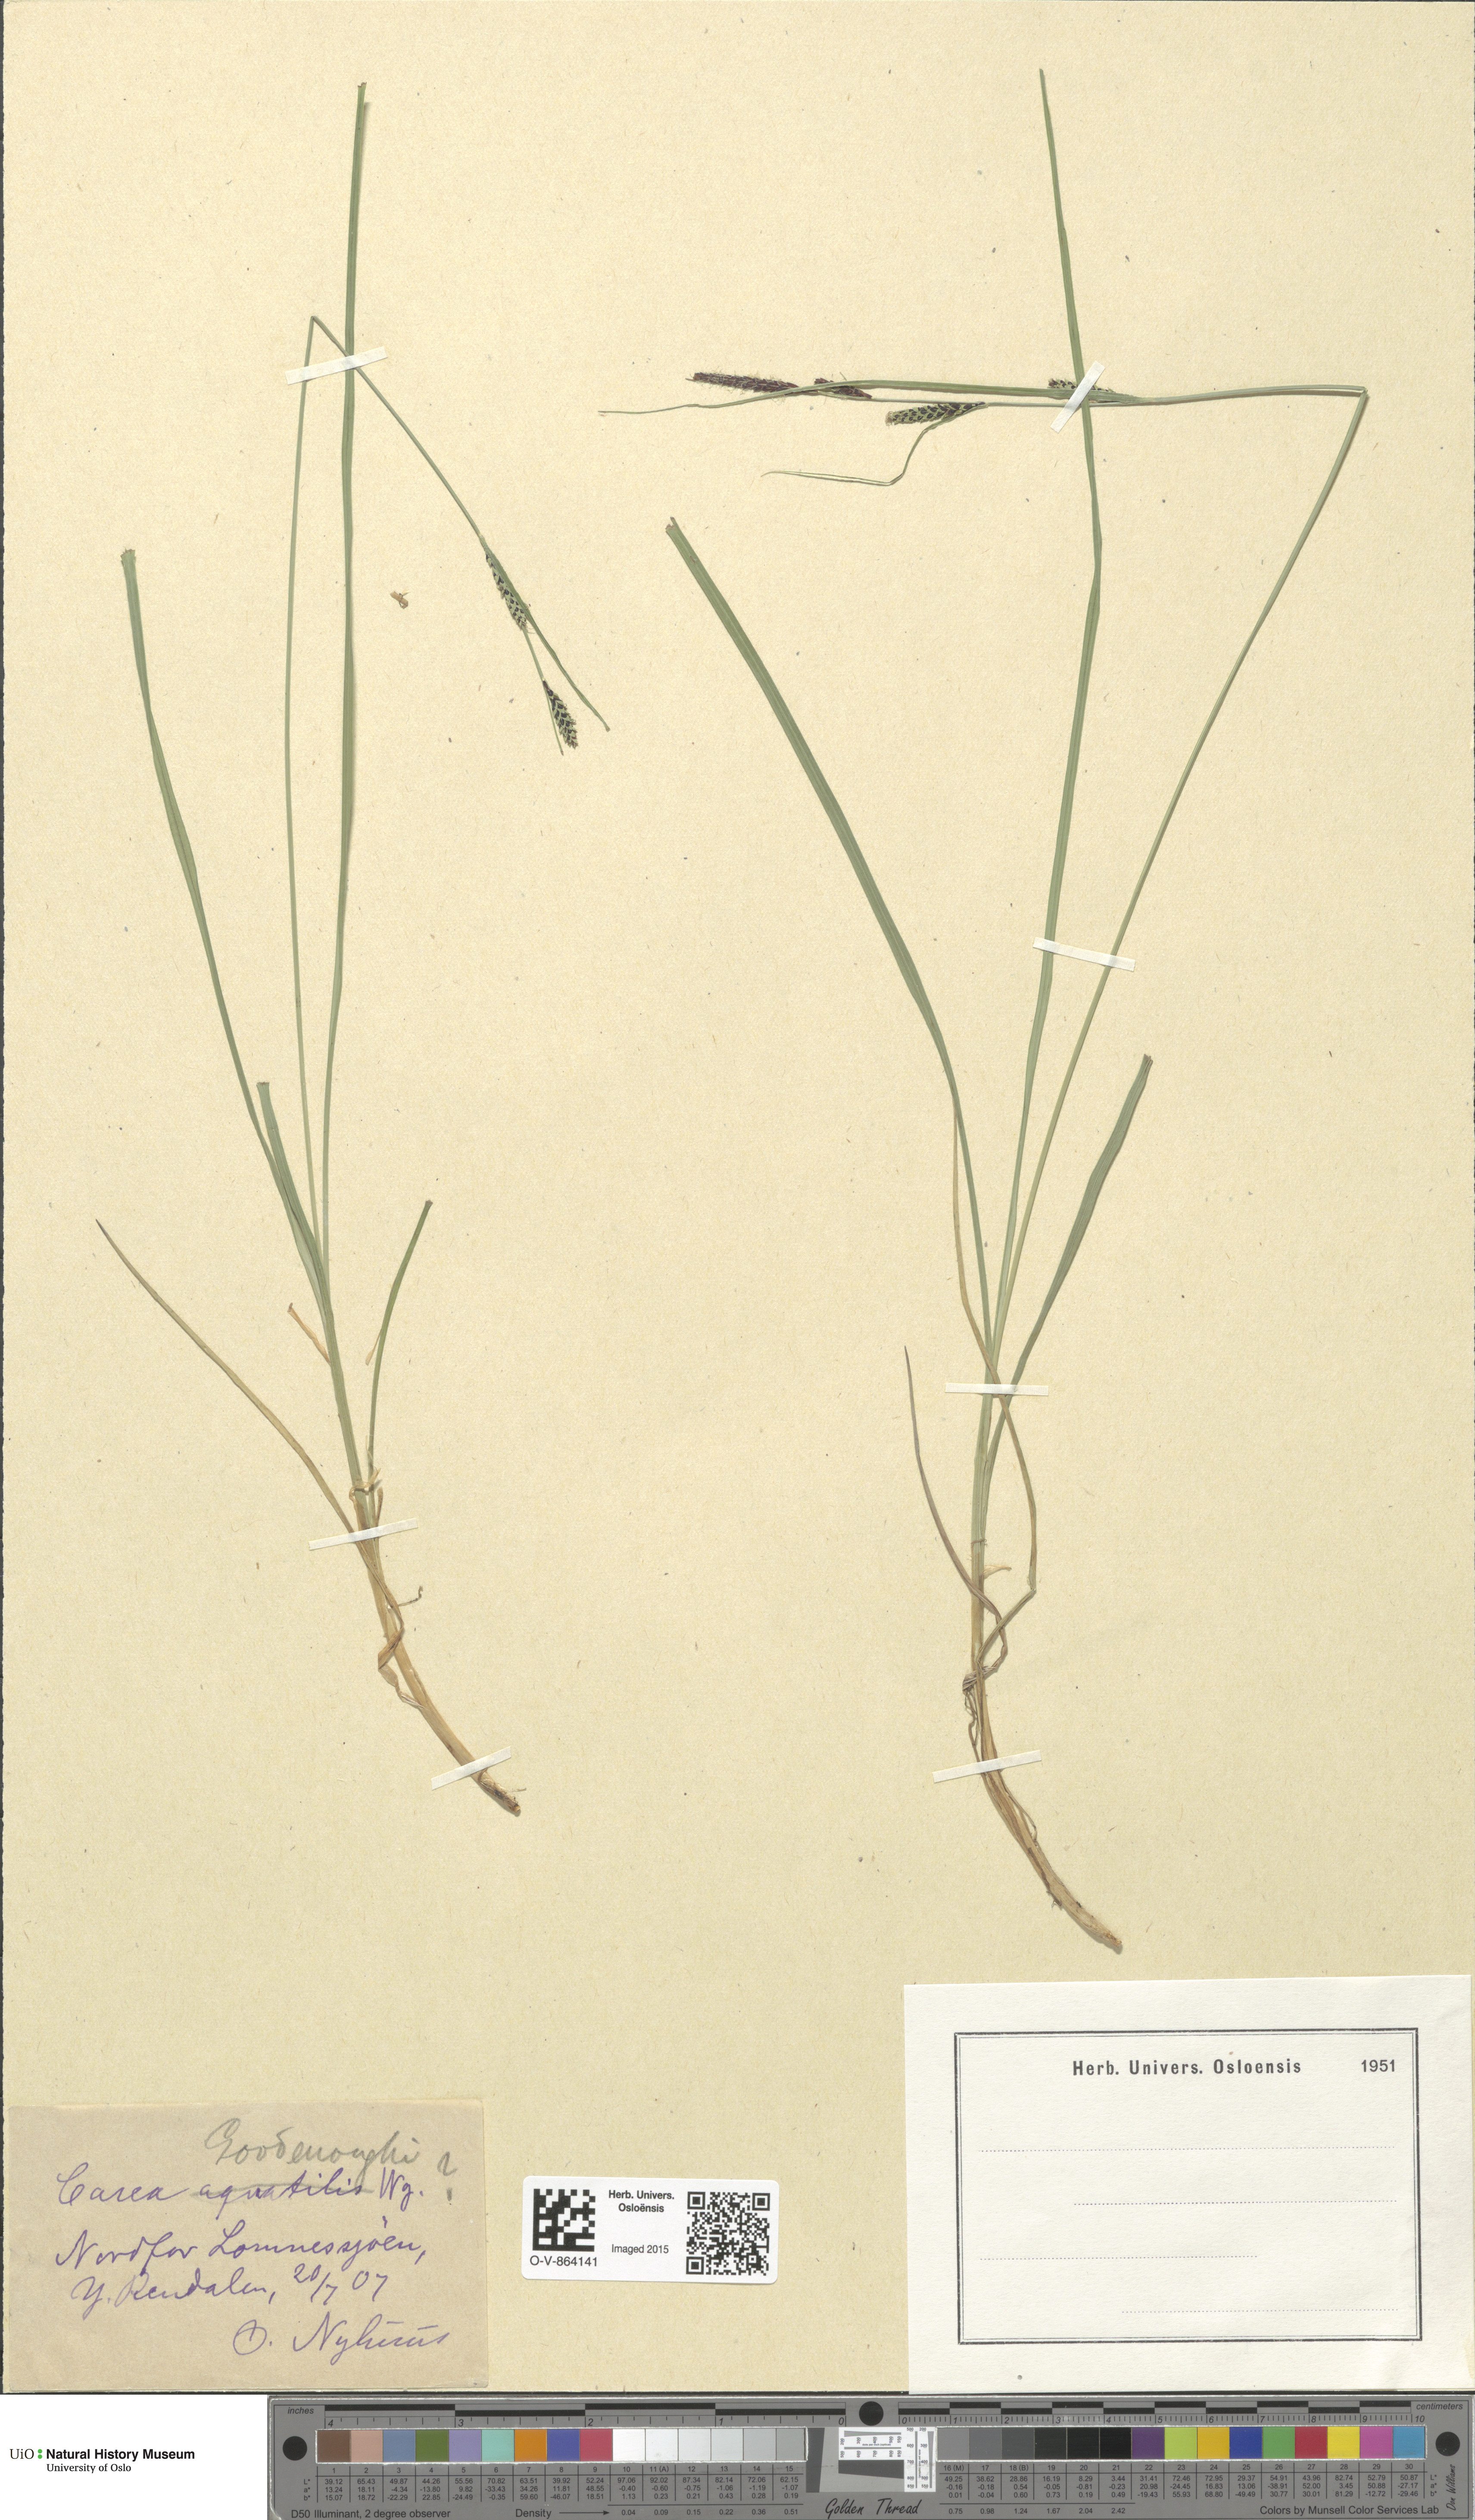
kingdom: Plantae
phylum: Tracheophyta
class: Liliopsida
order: Poales
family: Cyperaceae
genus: Carex
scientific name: Carex nigra
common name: Common sedge
